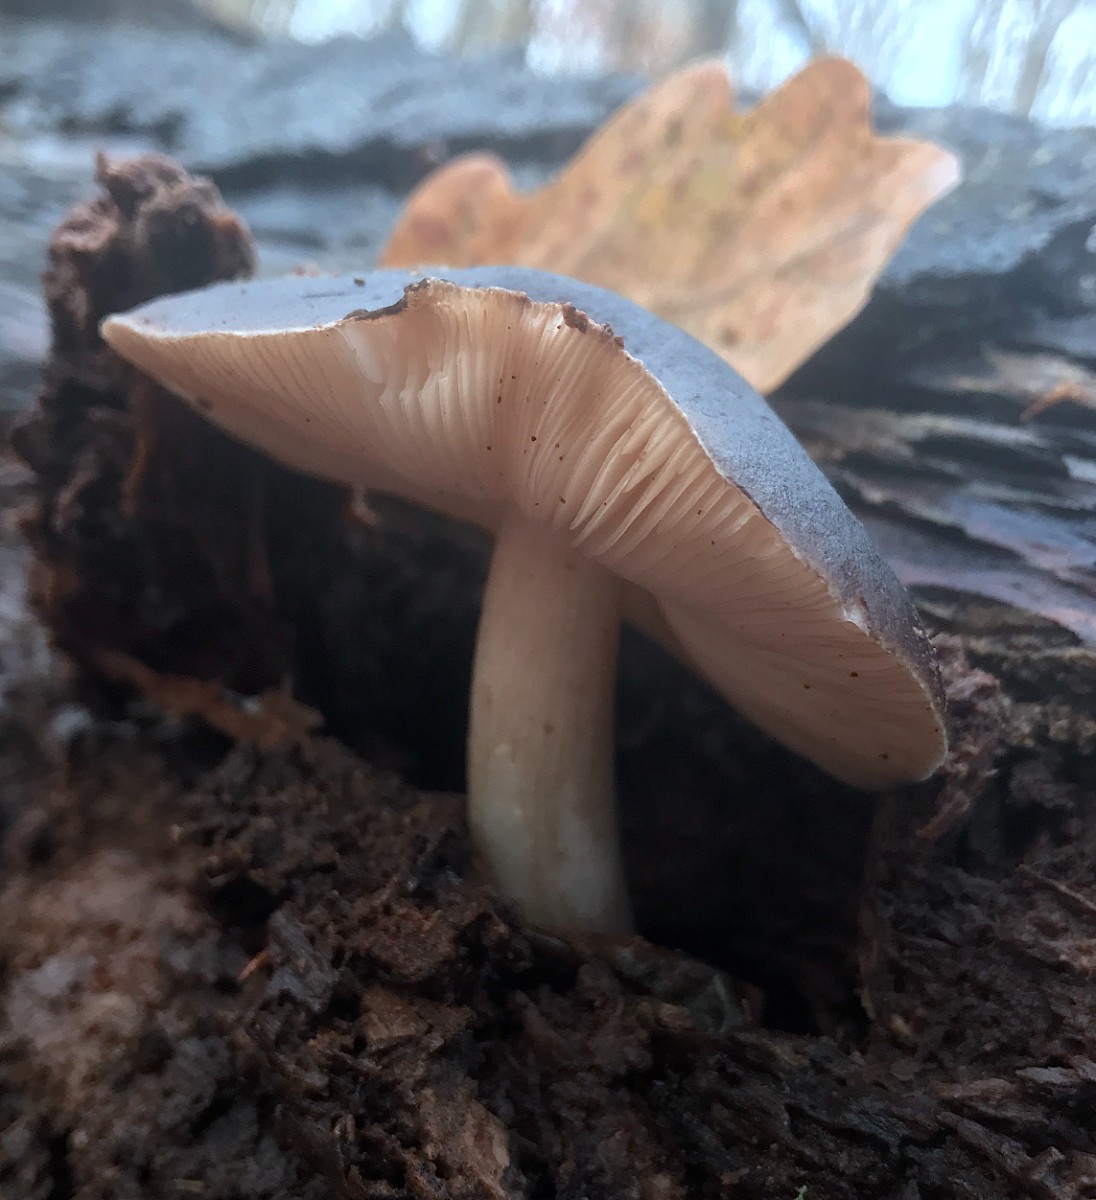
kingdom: Fungi
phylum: Basidiomycota
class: Agaricomycetes
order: Agaricales
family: Pluteaceae
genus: Pluteus
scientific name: Pluteus cervinus
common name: sodfarvet skærmhat
